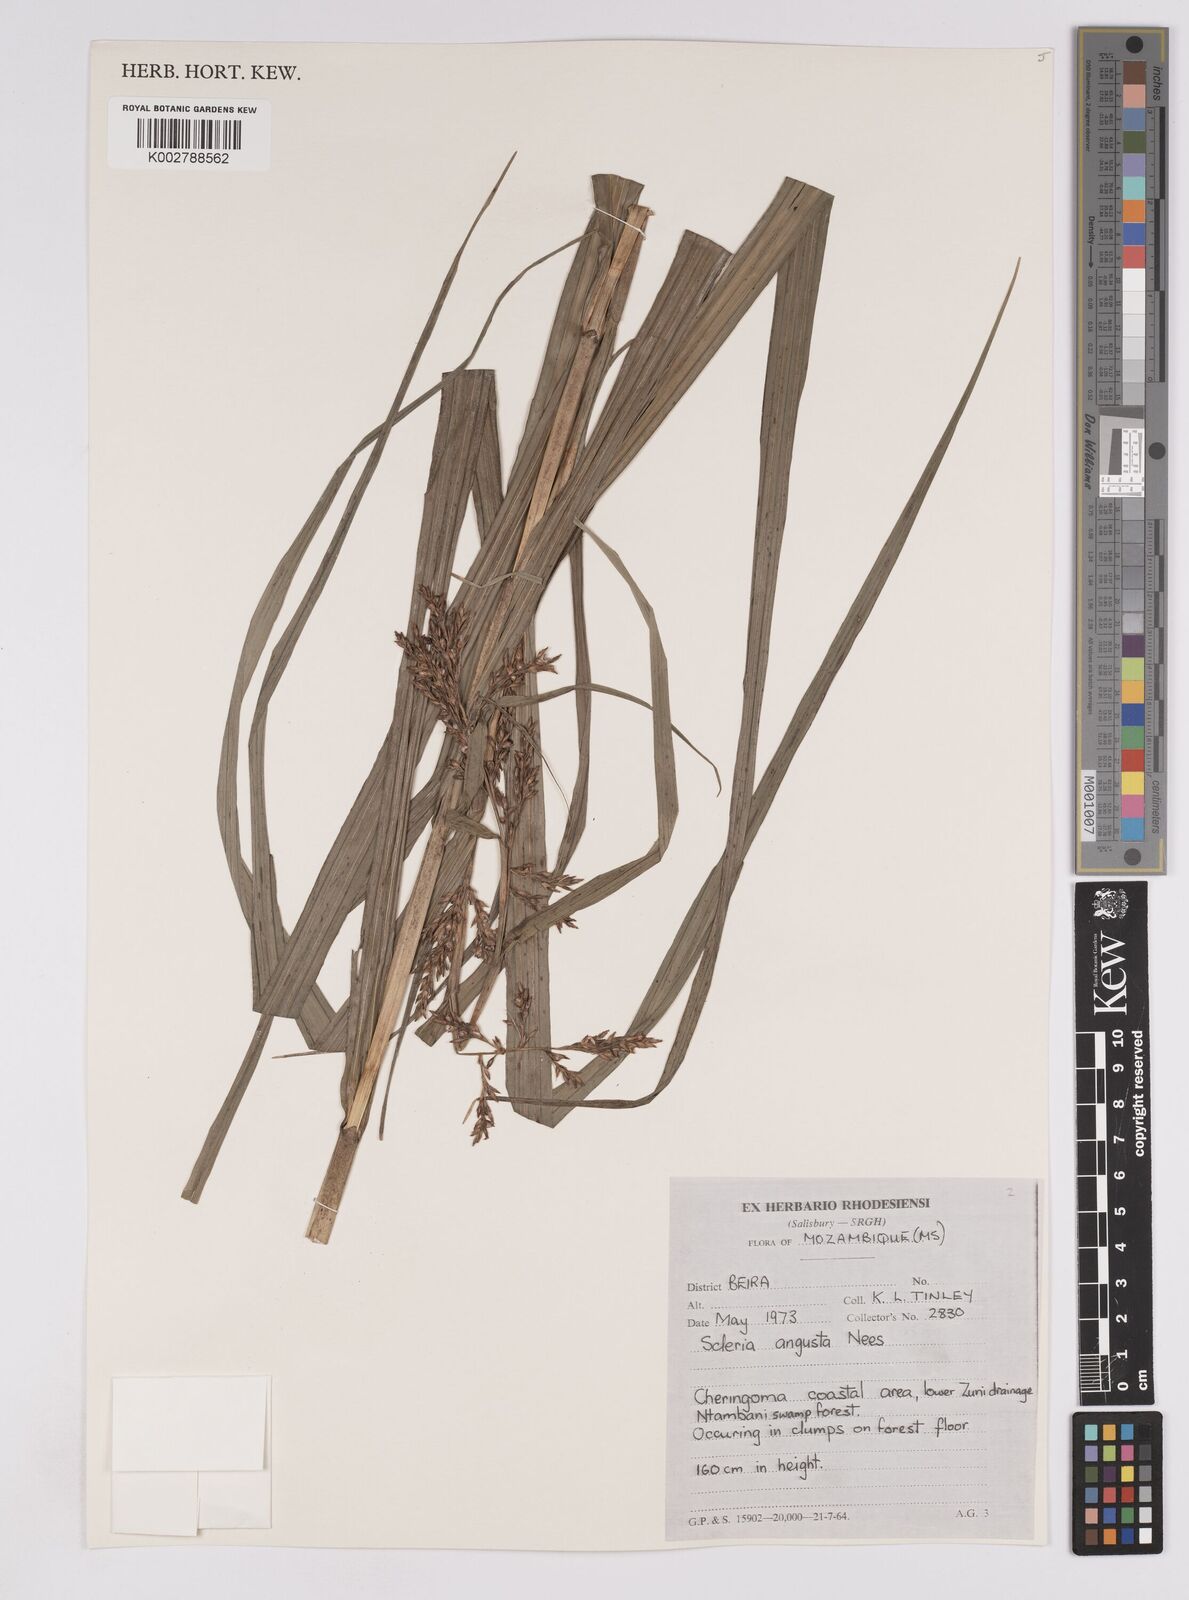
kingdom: Plantae
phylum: Tracheophyta
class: Liliopsida
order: Poales
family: Cyperaceae
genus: Scleria
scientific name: Scleria angusta
